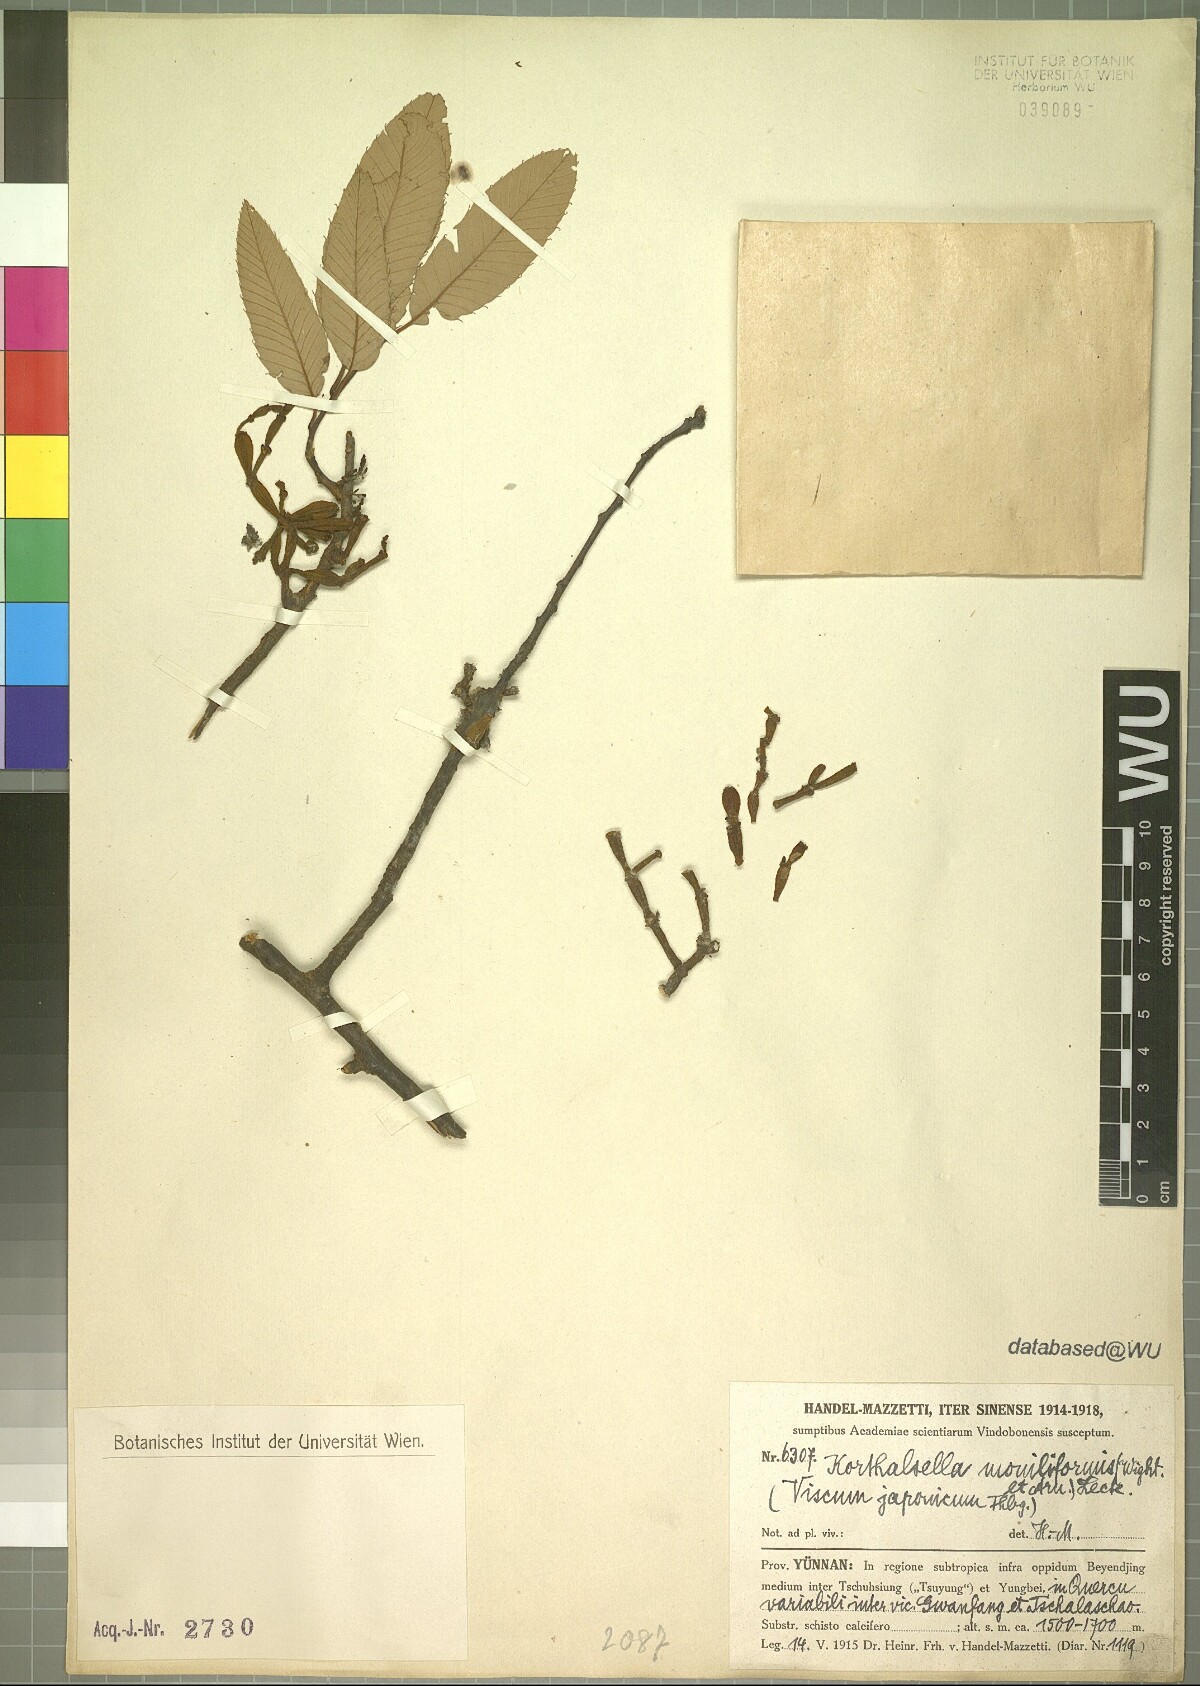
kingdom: Plantae
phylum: Tracheophyta
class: Magnoliopsida
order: Santalales
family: Viscaceae
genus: Korthalsella
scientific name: Korthalsella japonica
